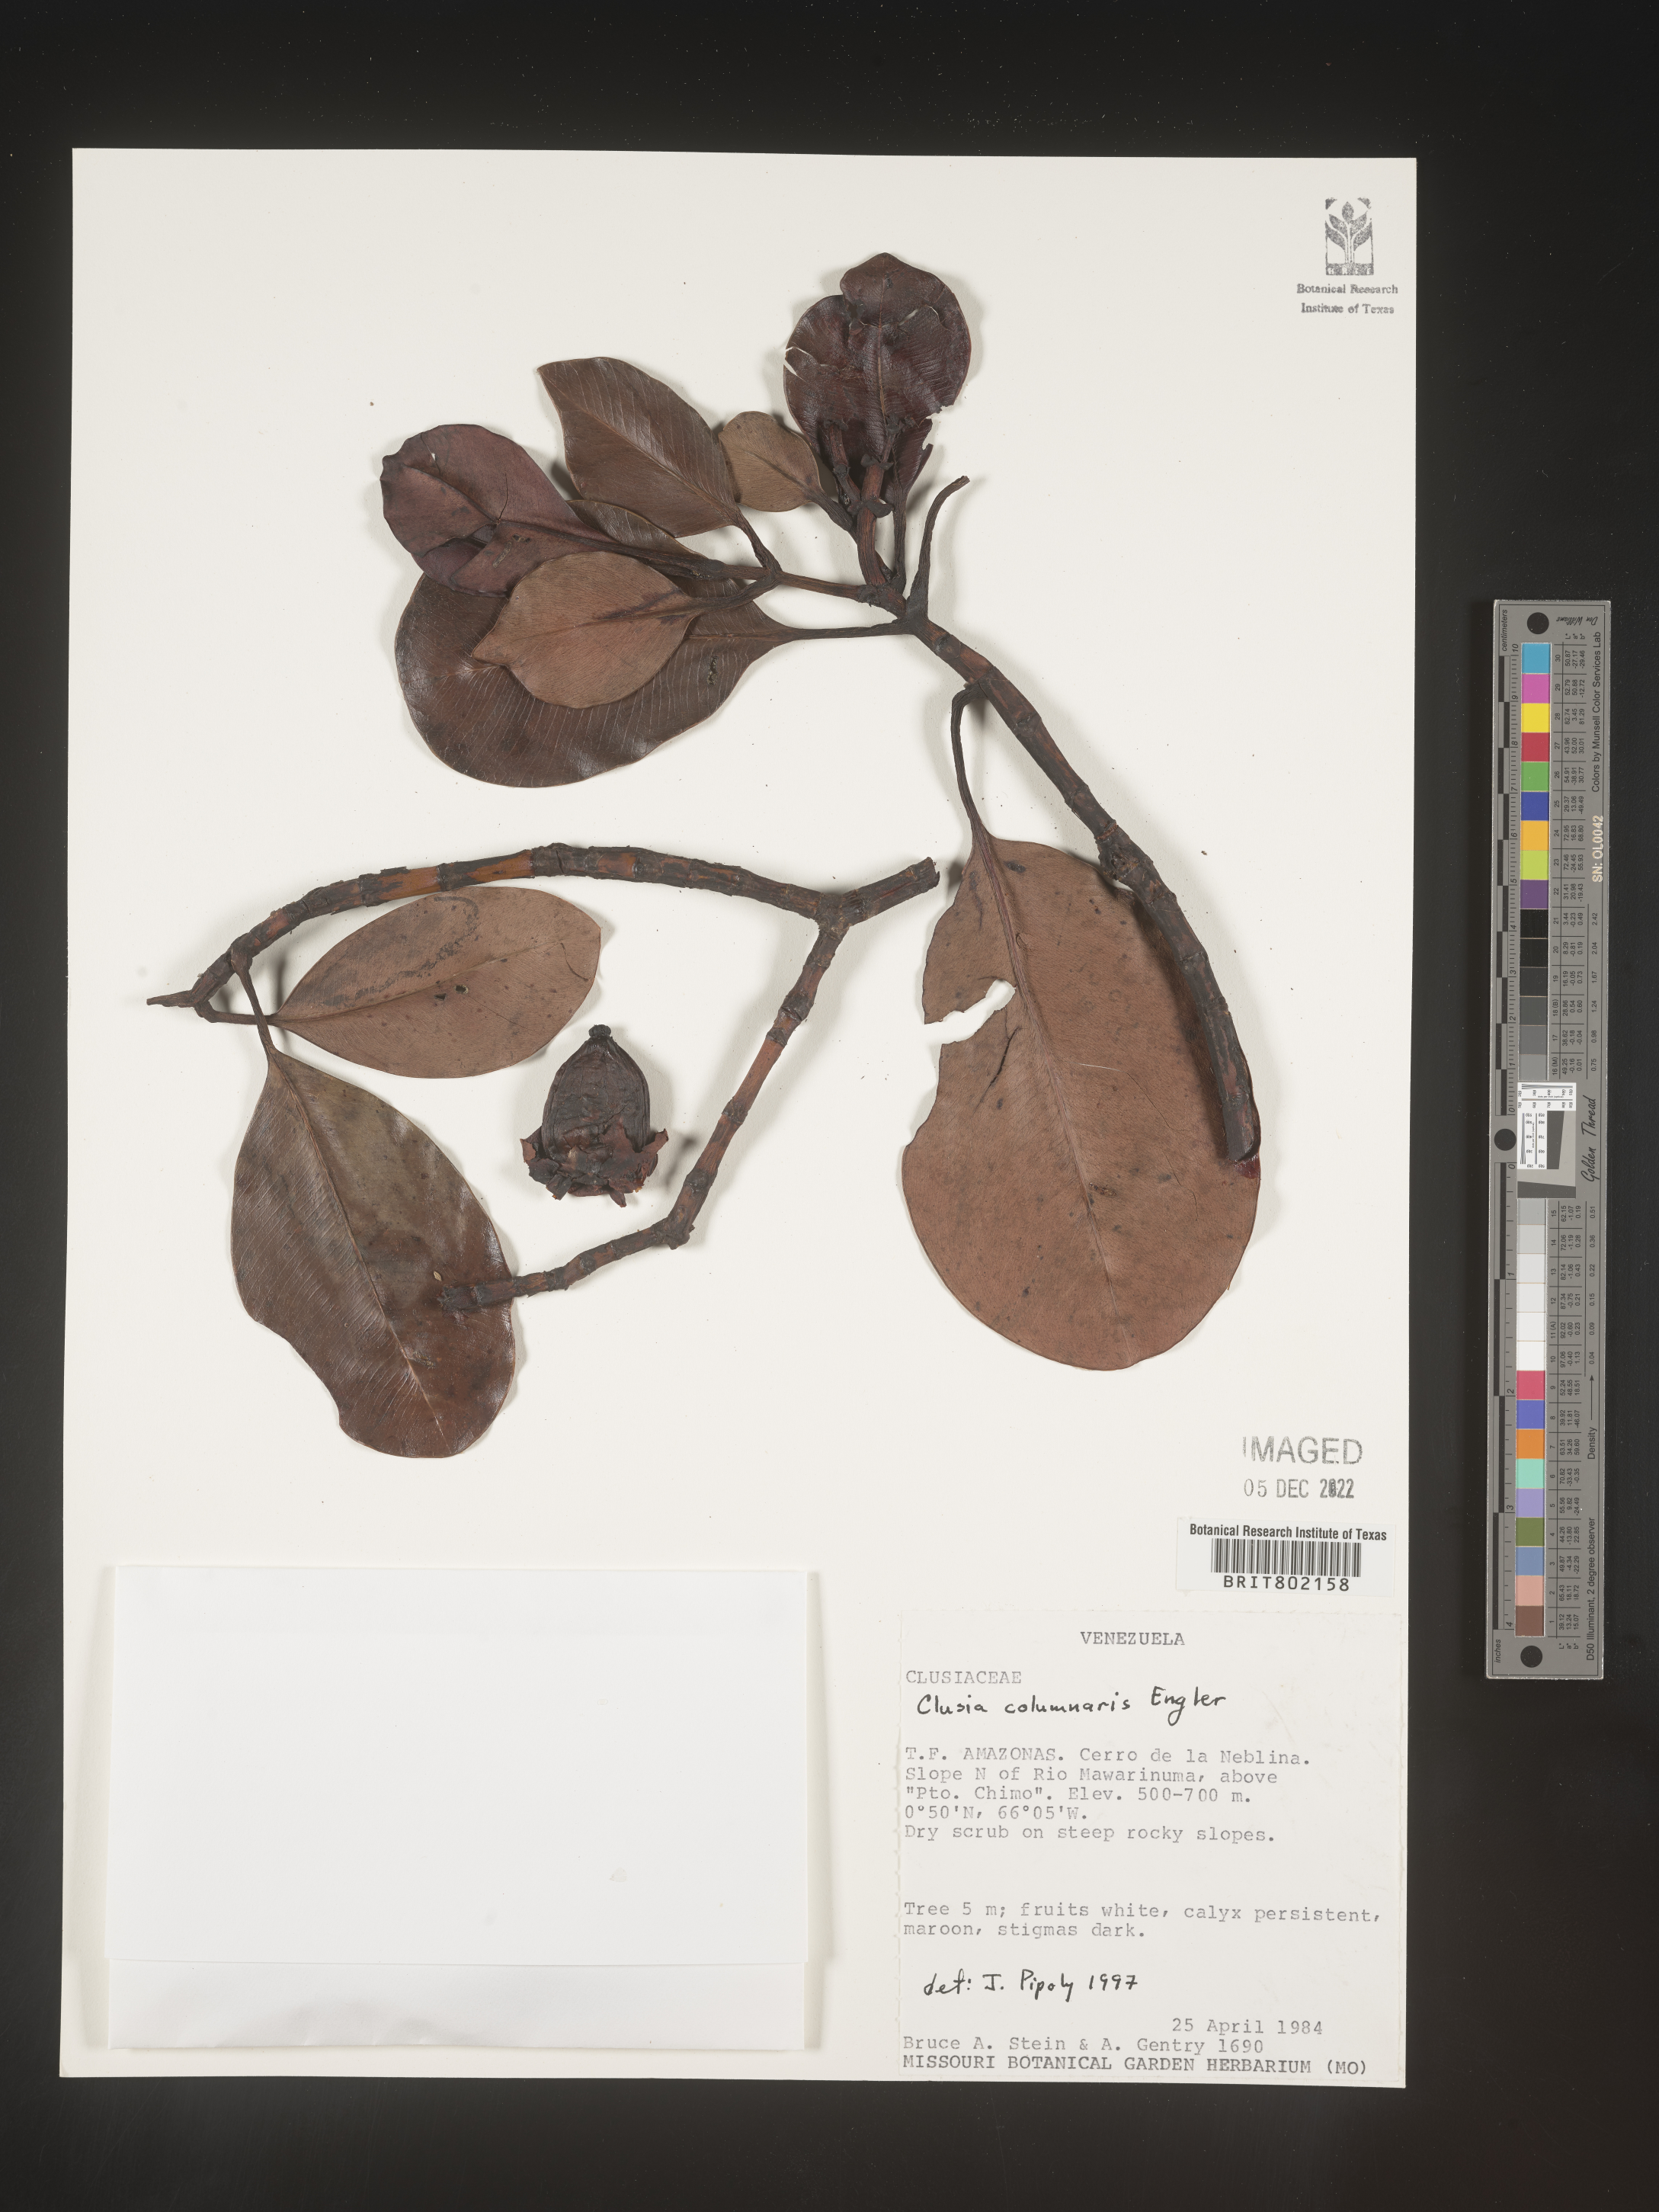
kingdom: Plantae
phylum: Tracheophyta
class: Magnoliopsida
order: Malpighiales
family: Clusiaceae
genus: Clusia
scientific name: Clusia columnaris
